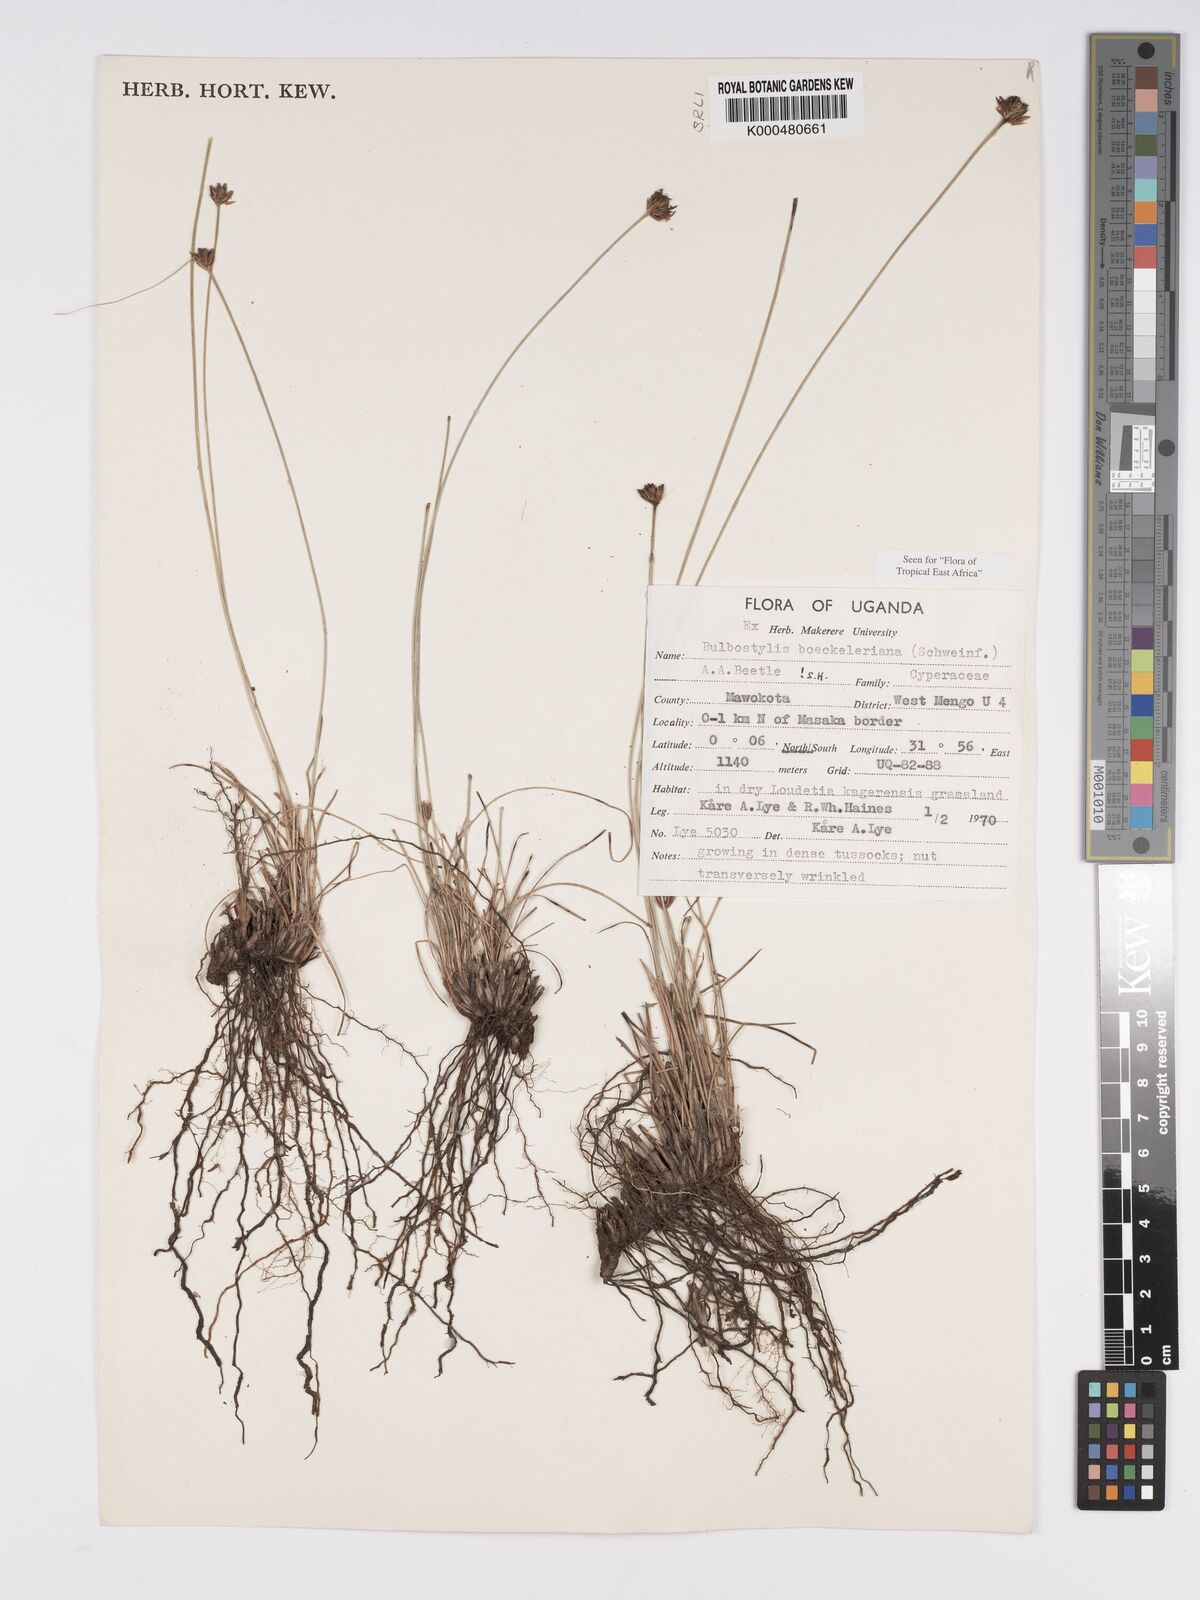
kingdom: Plantae
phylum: Tracheophyta
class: Liliopsida
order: Poales
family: Cyperaceae
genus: Bulbostylis
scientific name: Bulbostylis boeckeleriana
